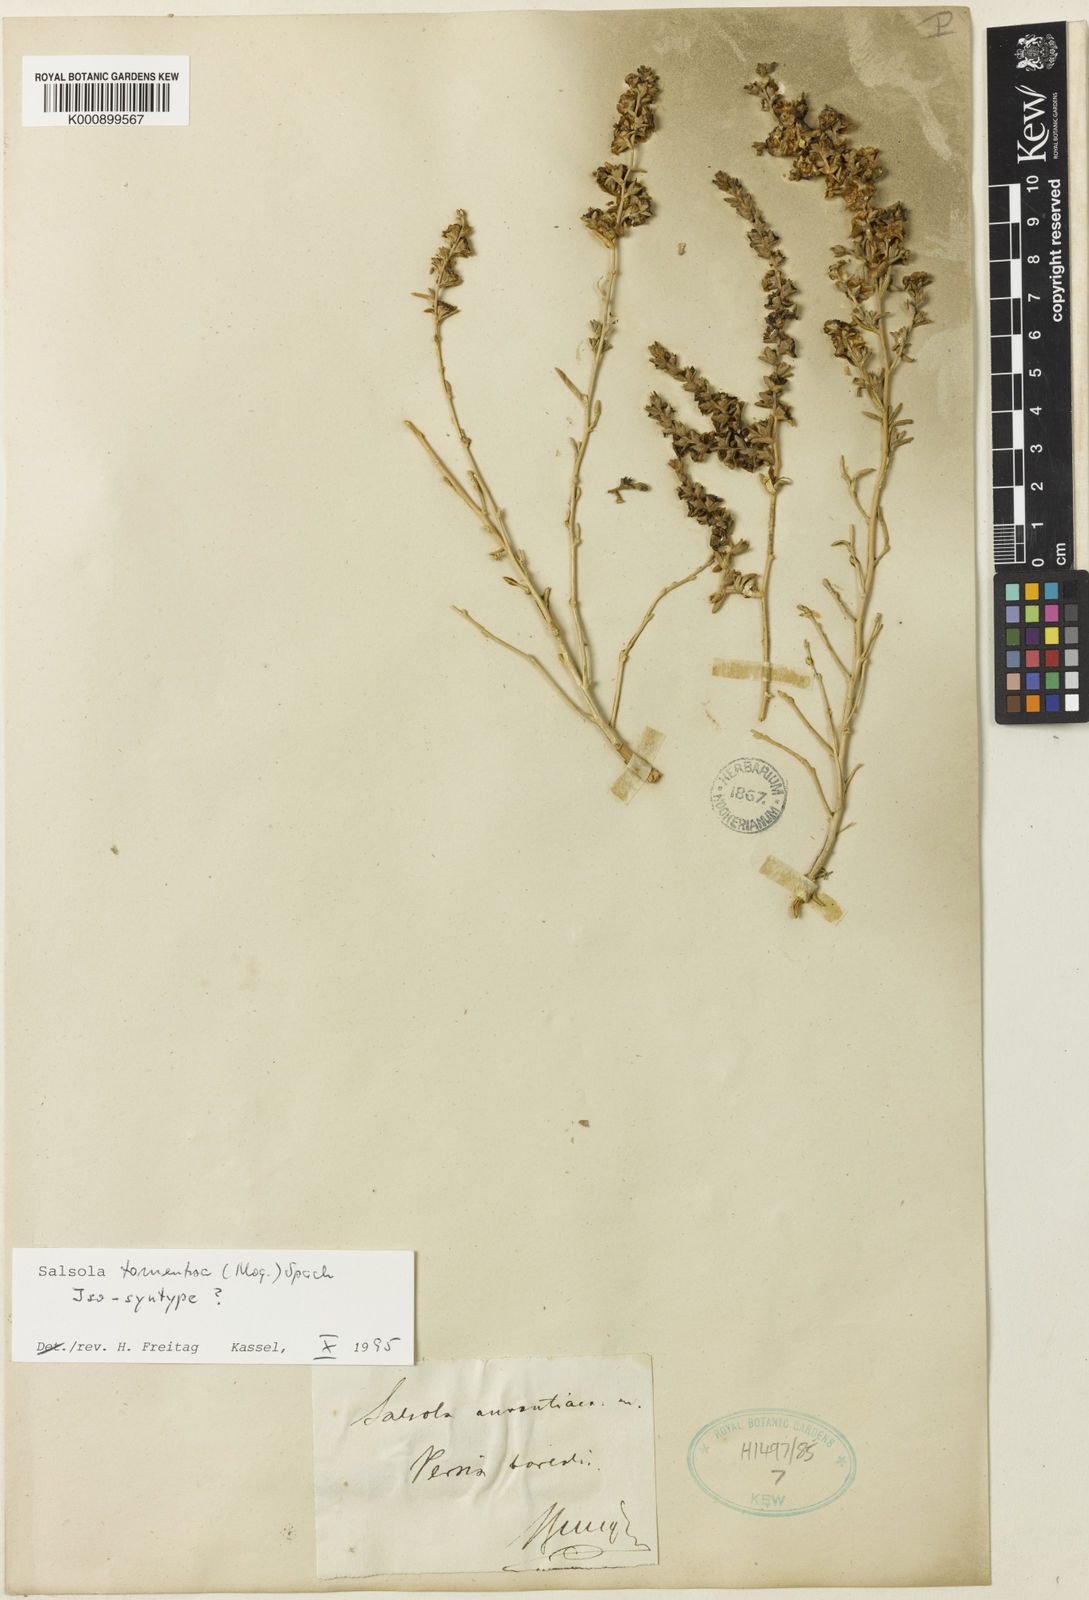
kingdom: Plantae
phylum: Tracheophyta
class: Magnoliopsida
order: Caryophyllales
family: Amaranthaceae
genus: Kaviria
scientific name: Kaviria tomentosa
